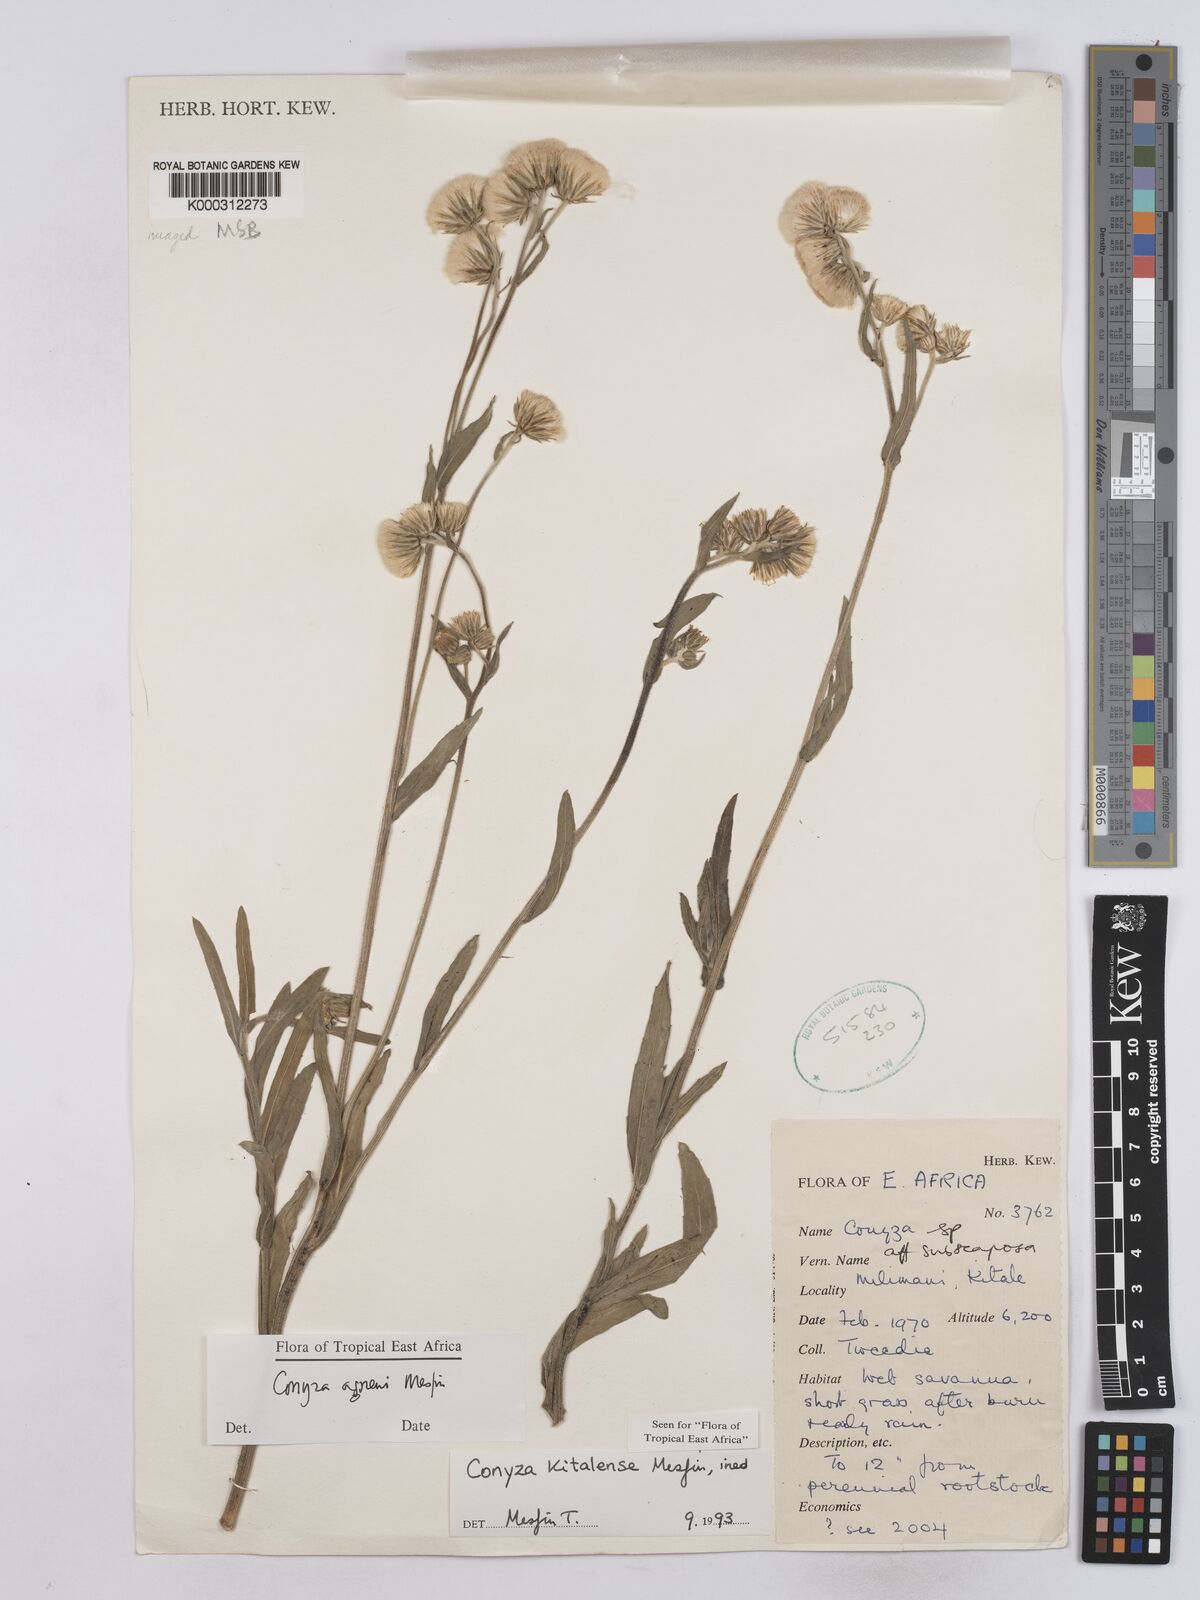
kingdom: Plantae
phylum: Tracheophyta
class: Magnoliopsida
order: Asterales
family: Asteraceae
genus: Conyza
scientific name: Conyza agnewii
